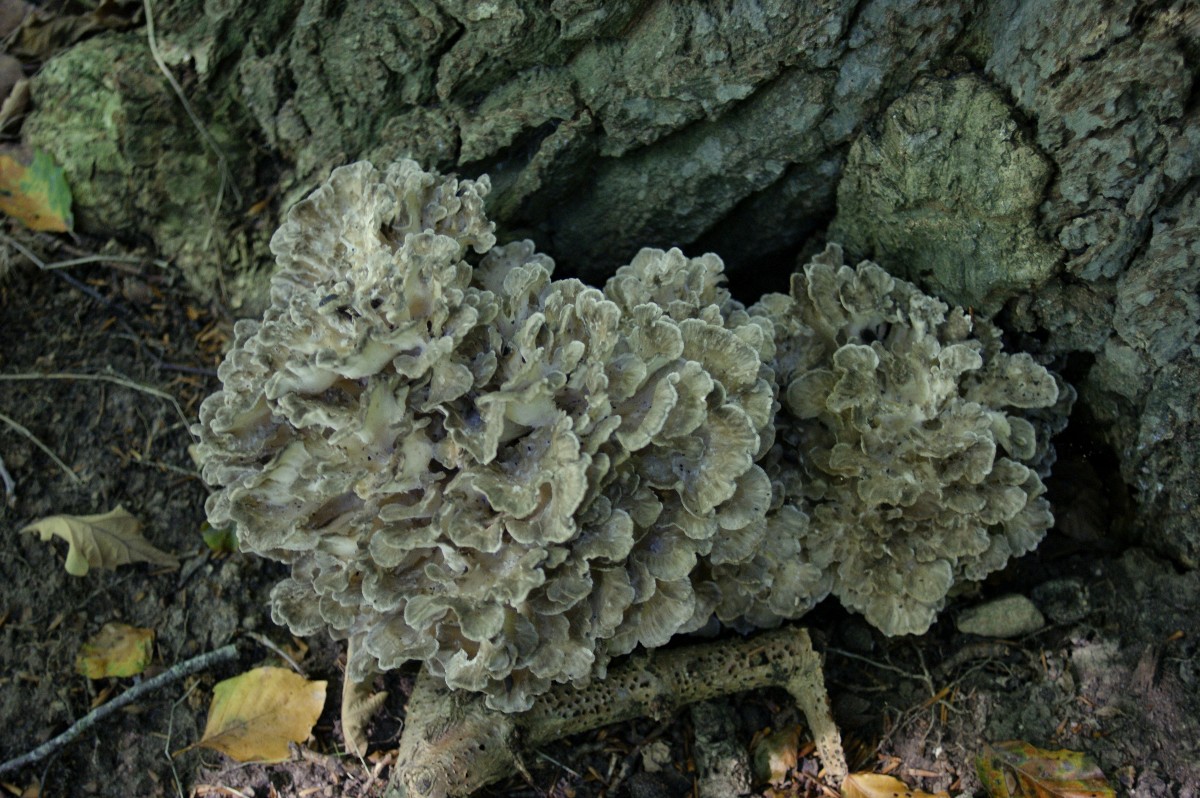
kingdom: Fungi
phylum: Basidiomycota
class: Agaricomycetes
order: Polyporales
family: Grifolaceae
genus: Grifola
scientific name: Grifola frondosa
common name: tueporesvamp
